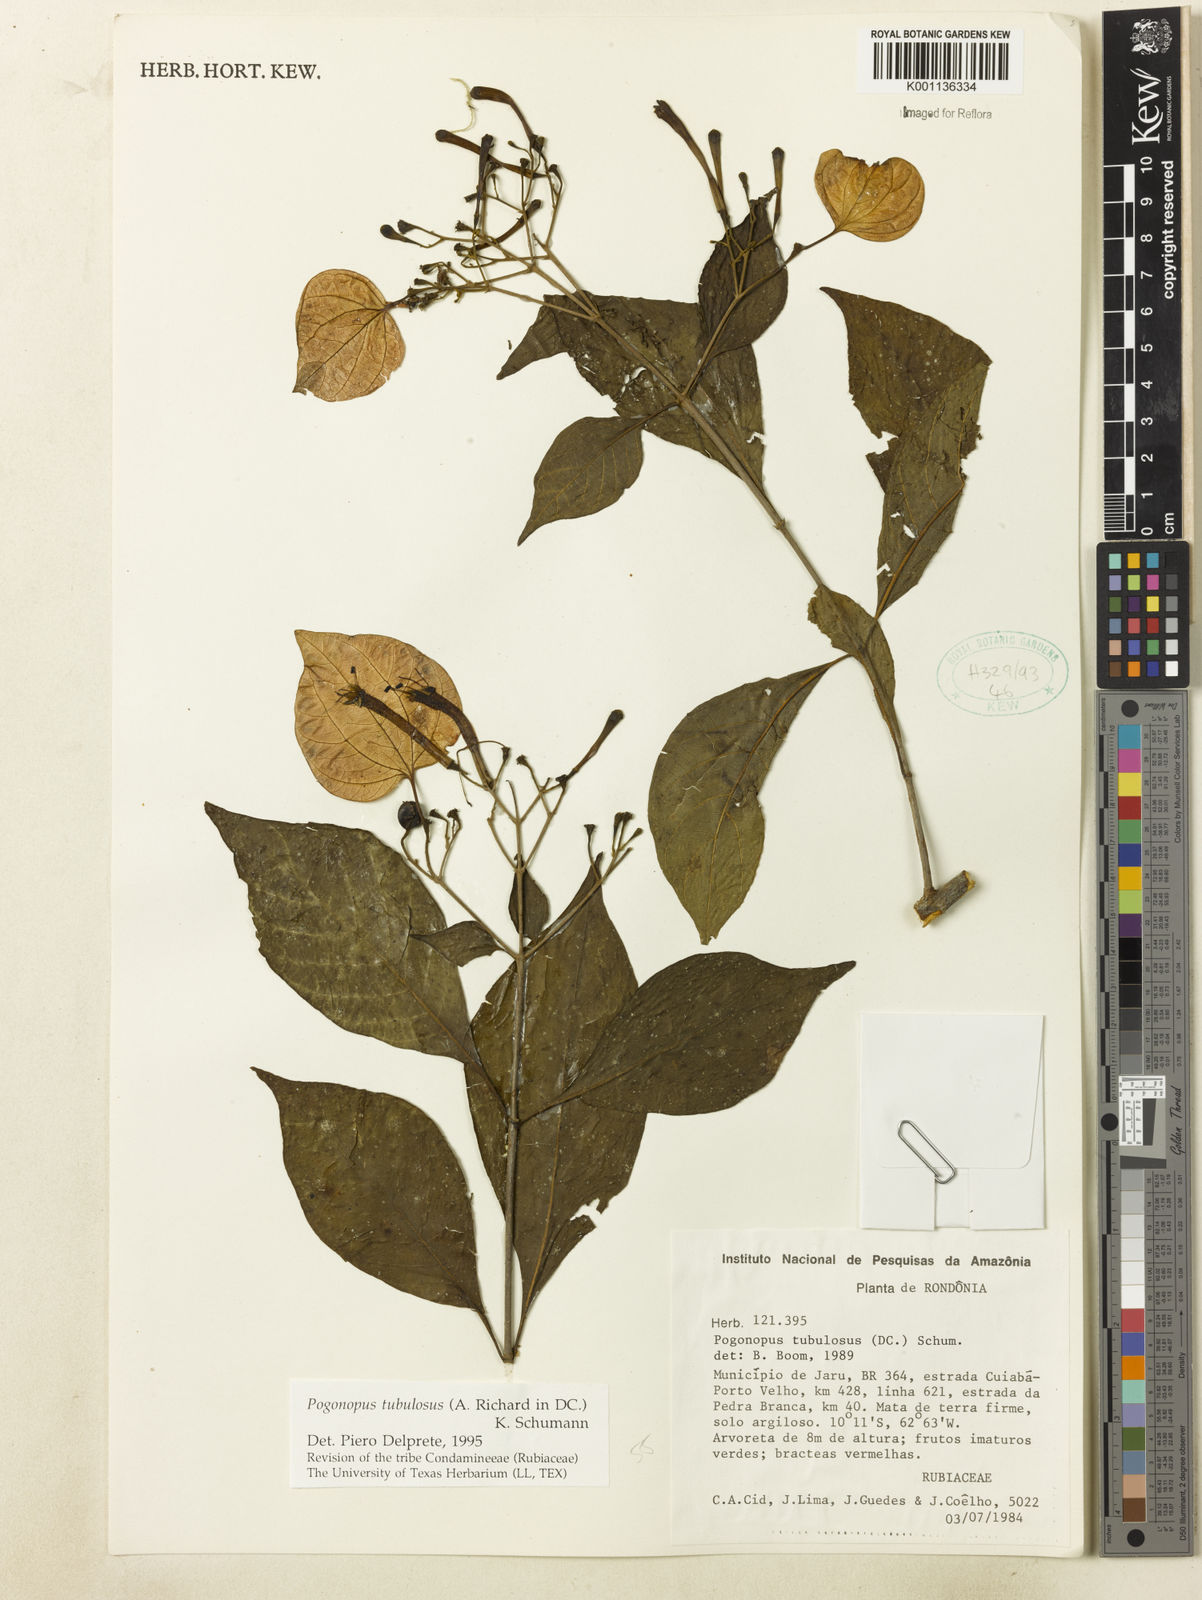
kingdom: Plantae
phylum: Tracheophyta
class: Magnoliopsida
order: Gentianales
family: Rubiaceae
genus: Pogonopus
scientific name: Pogonopus tubulosus
